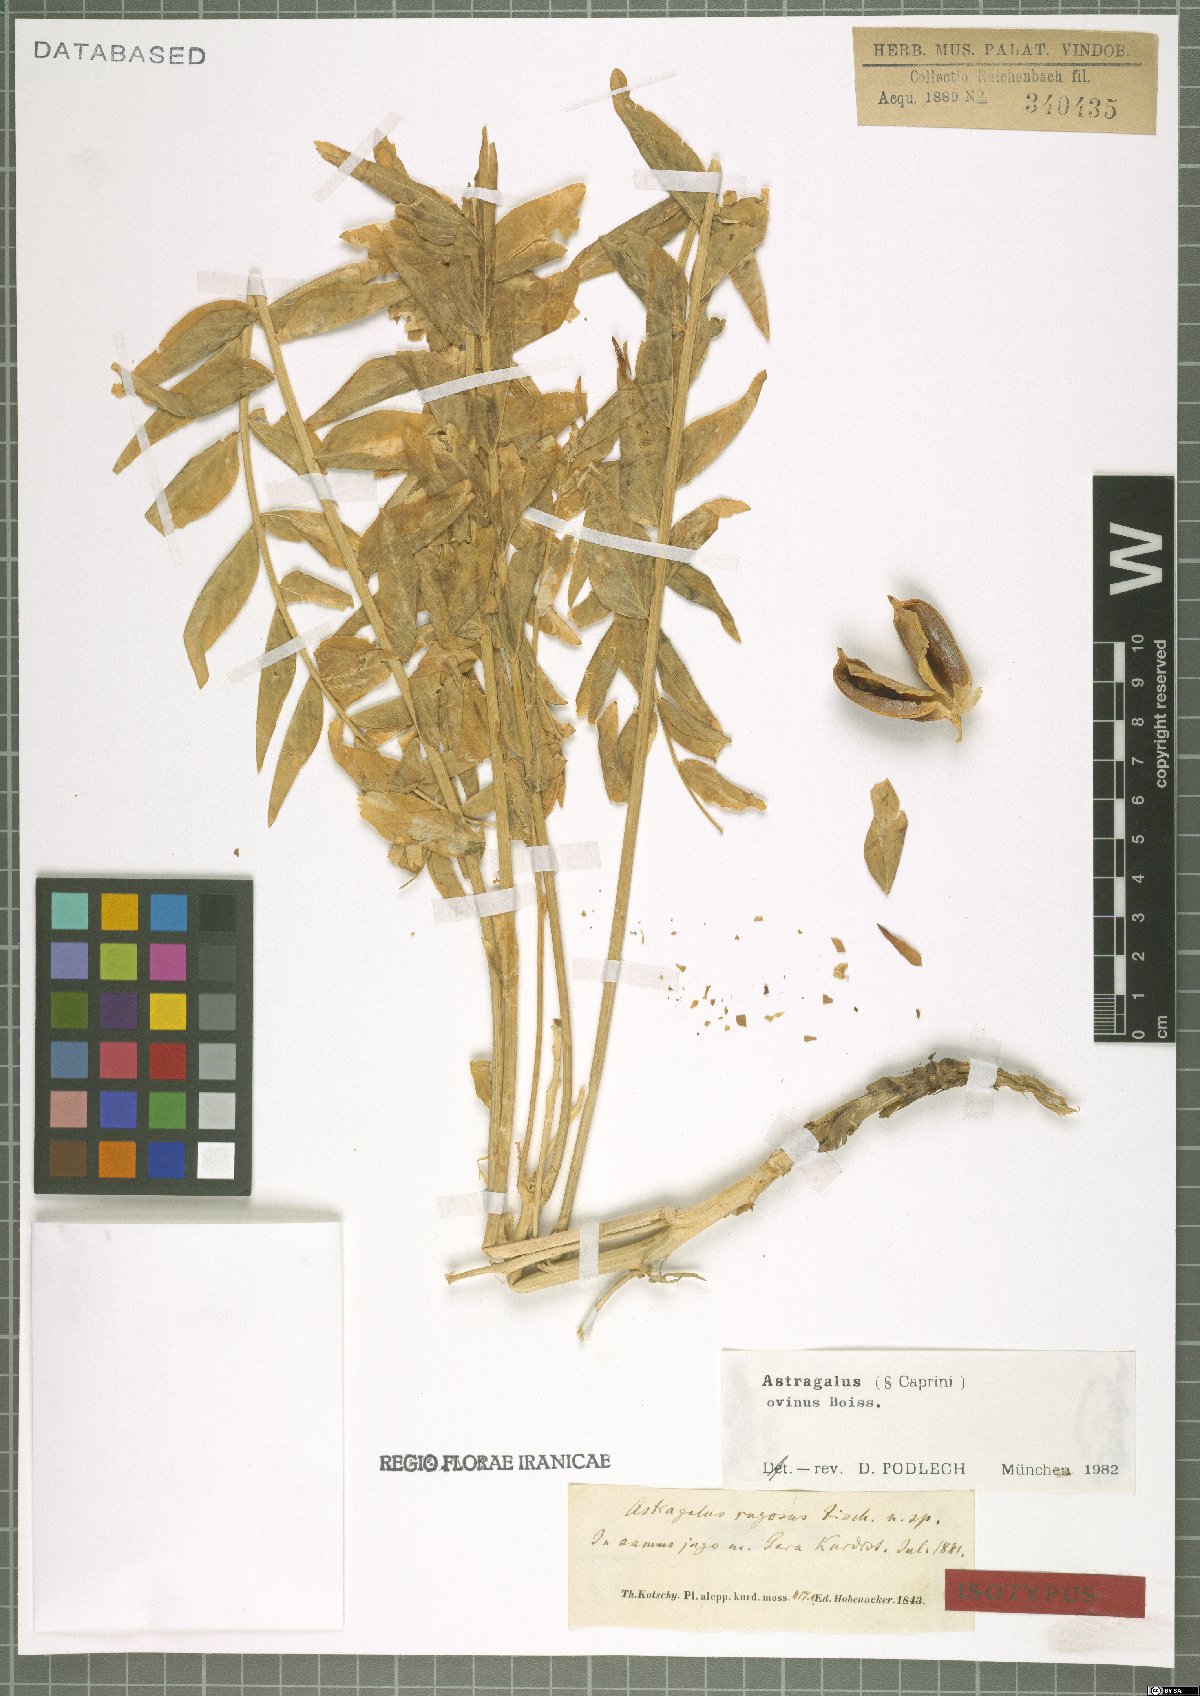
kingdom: Plantae
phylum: Tracheophyta
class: Magnoliopsida
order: Fabales
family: Fabaceae
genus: Astragalus
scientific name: Astragalus ovinus
